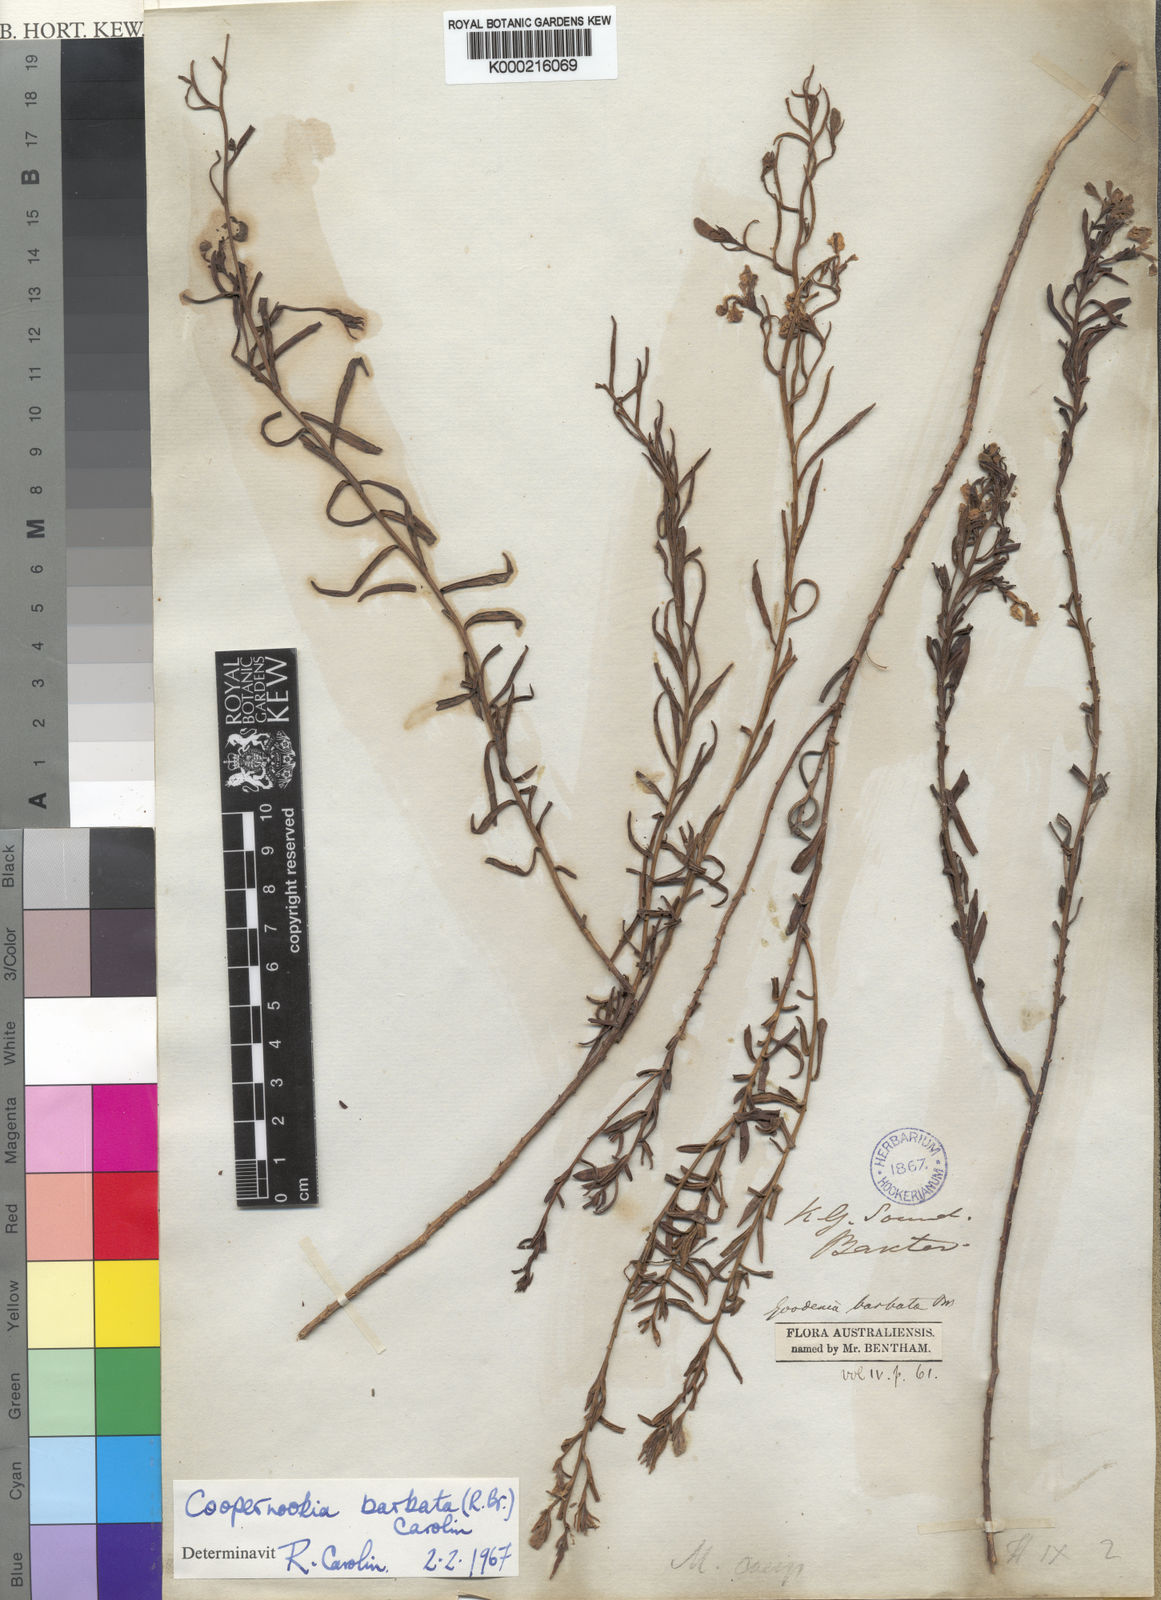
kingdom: Plantae
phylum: Tracheophyta
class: Magnoliopsida
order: Asterales
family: Goodeniaceae
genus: Goodenia
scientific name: Goodenia barbata
